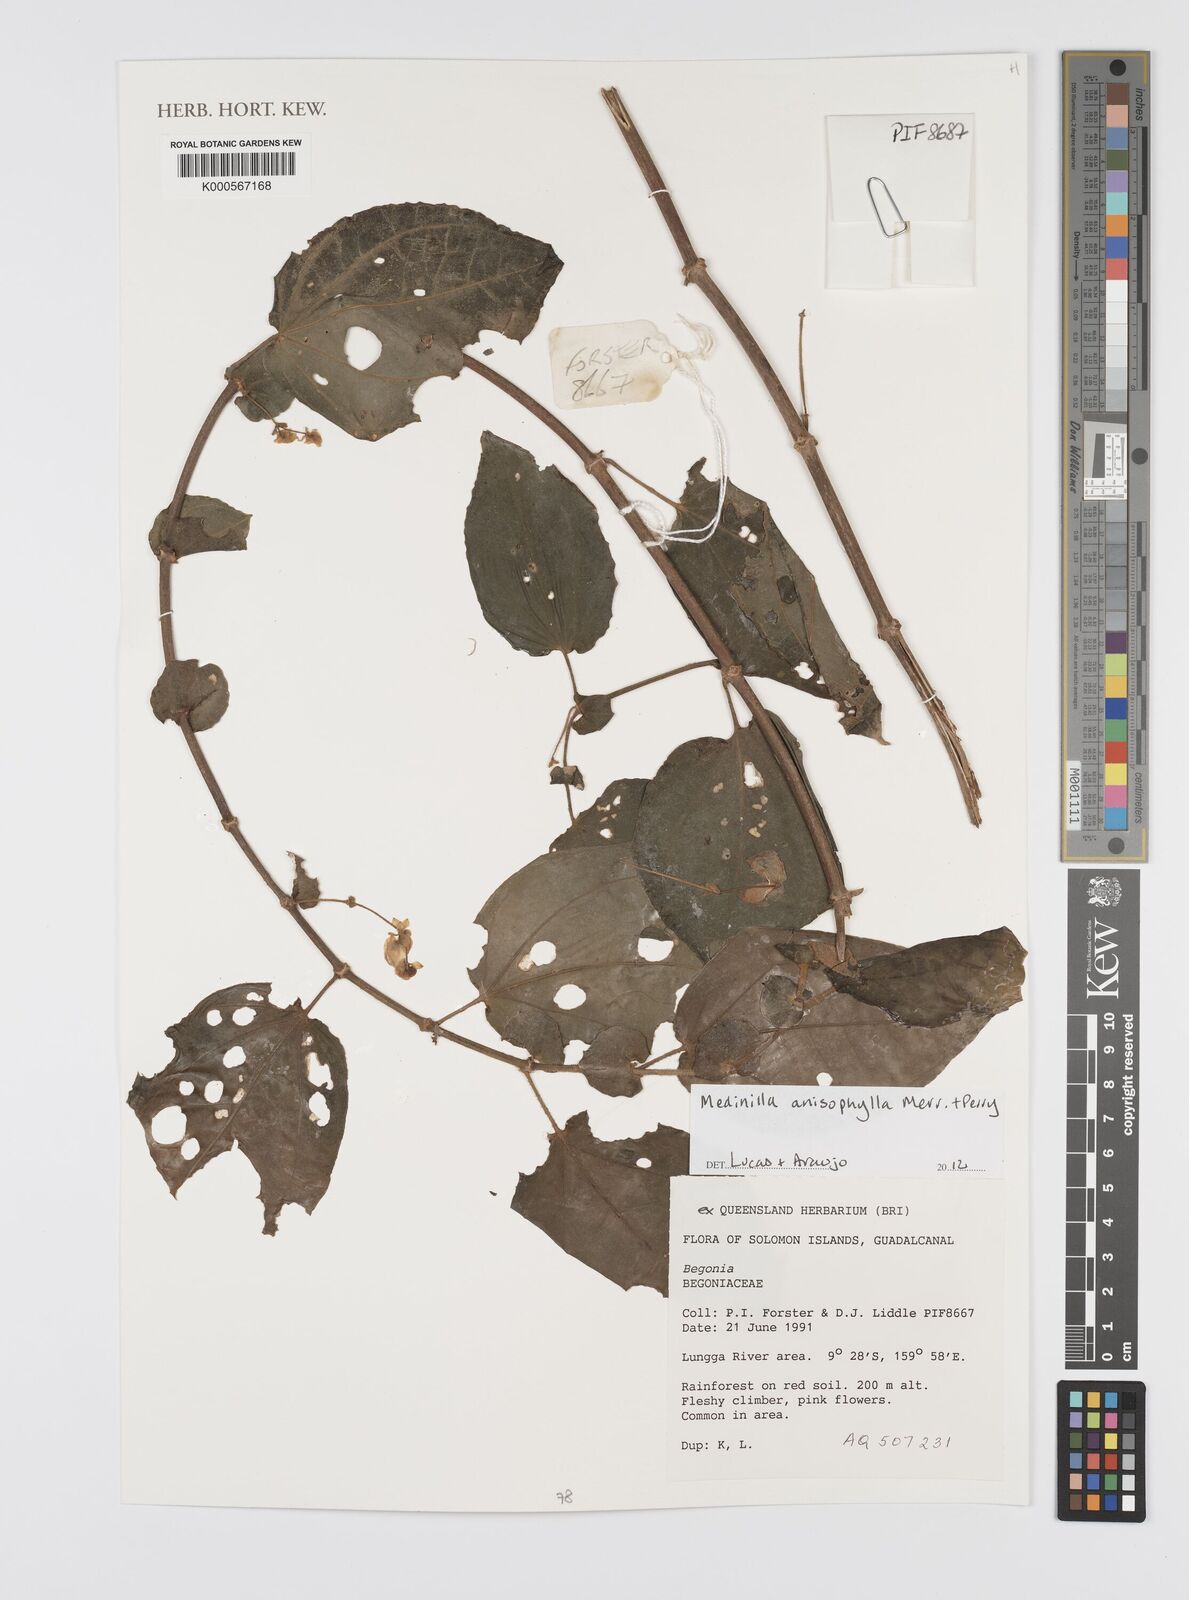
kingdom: Plantae
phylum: Tracheophyta
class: Magnoliopsida
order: Myrtales
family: Melastomataceae
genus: Medinilla
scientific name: Medinilla anisophylla
